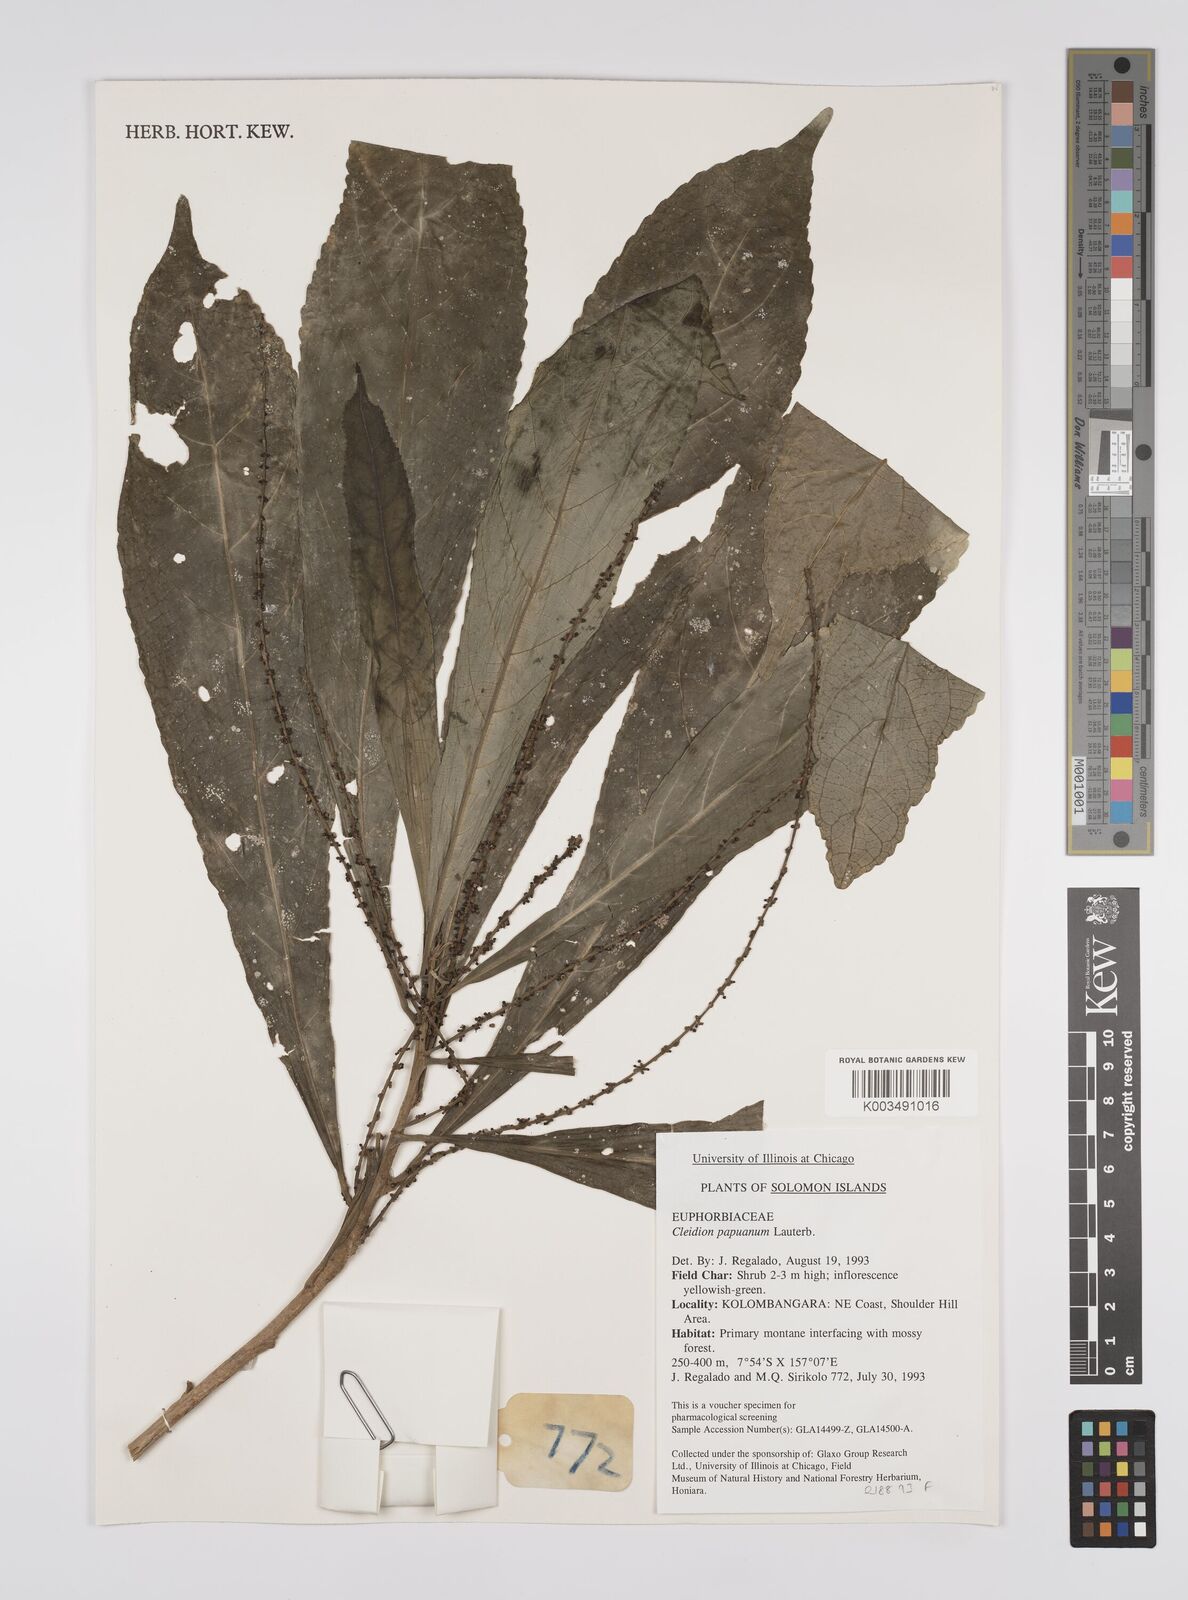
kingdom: Plantae
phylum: Tracheophyta
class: Magnoliopsida
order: Malpighiales
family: Euphorbiaceae
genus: Cleidion
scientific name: Cleidion papuanum
